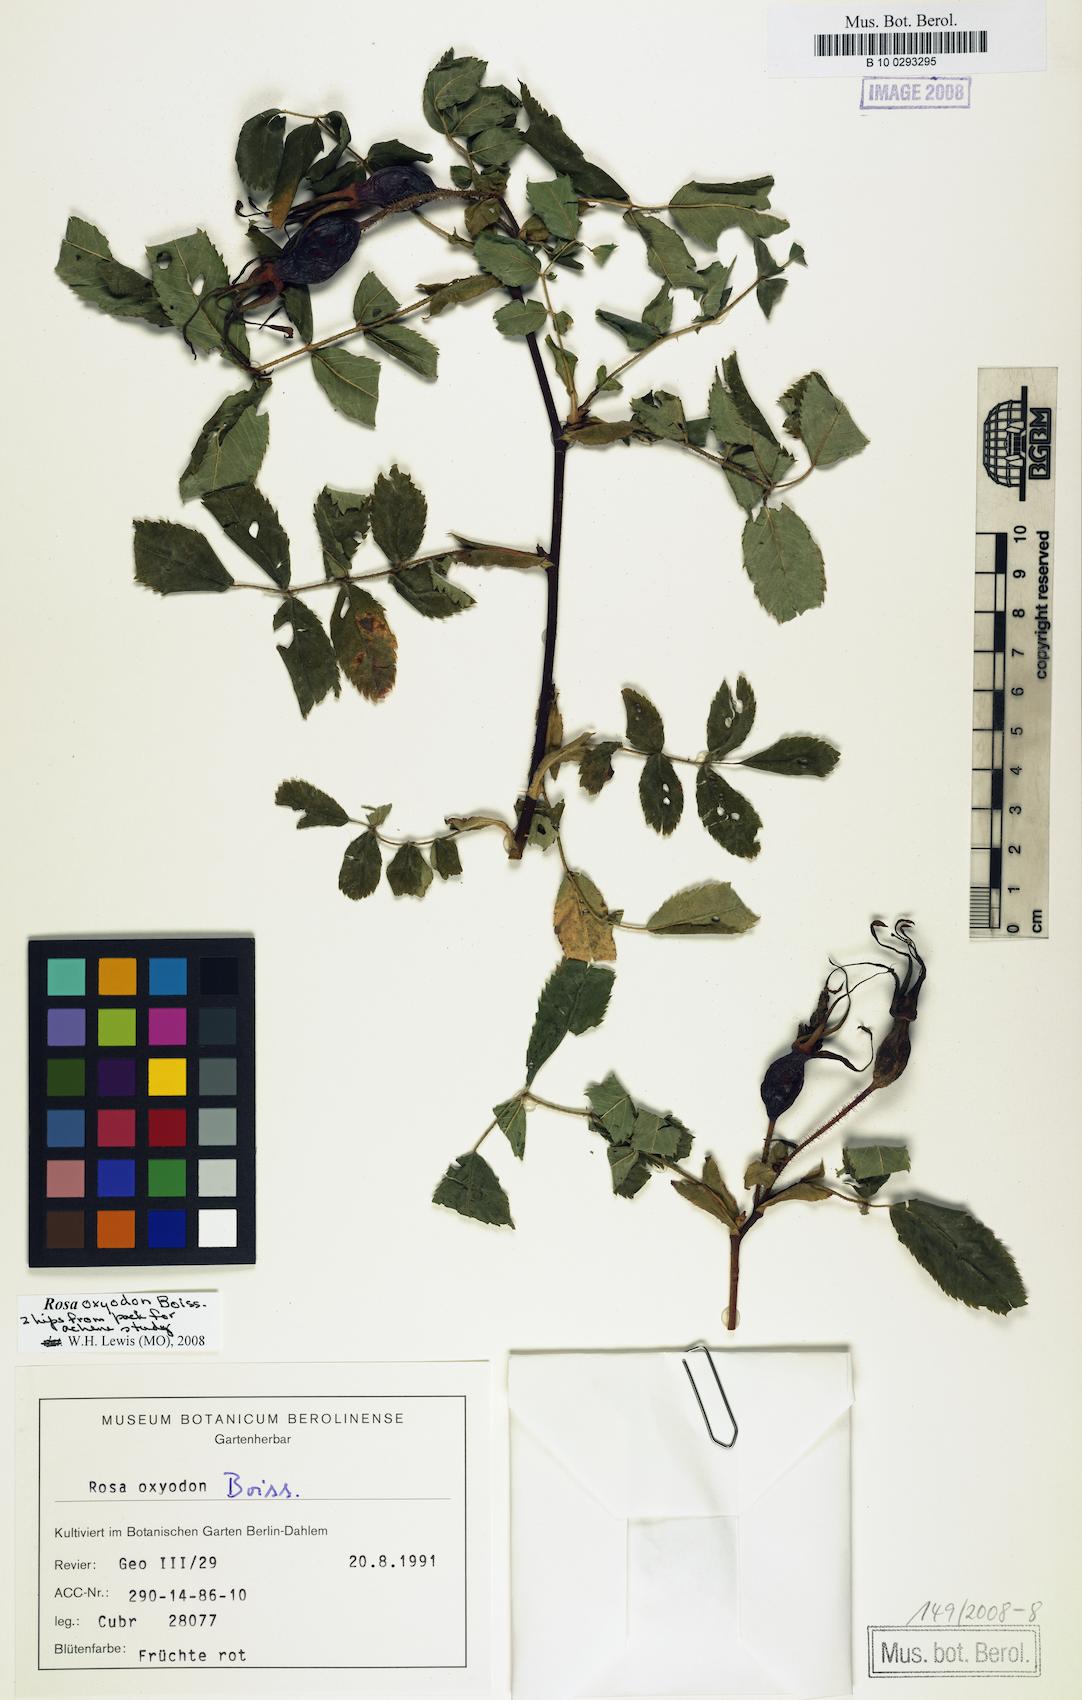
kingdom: Plantae
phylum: Tracheophyta
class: Magnoliopsida
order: Rosales
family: Rosaceae
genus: Rosa
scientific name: Rosa oxyodon
